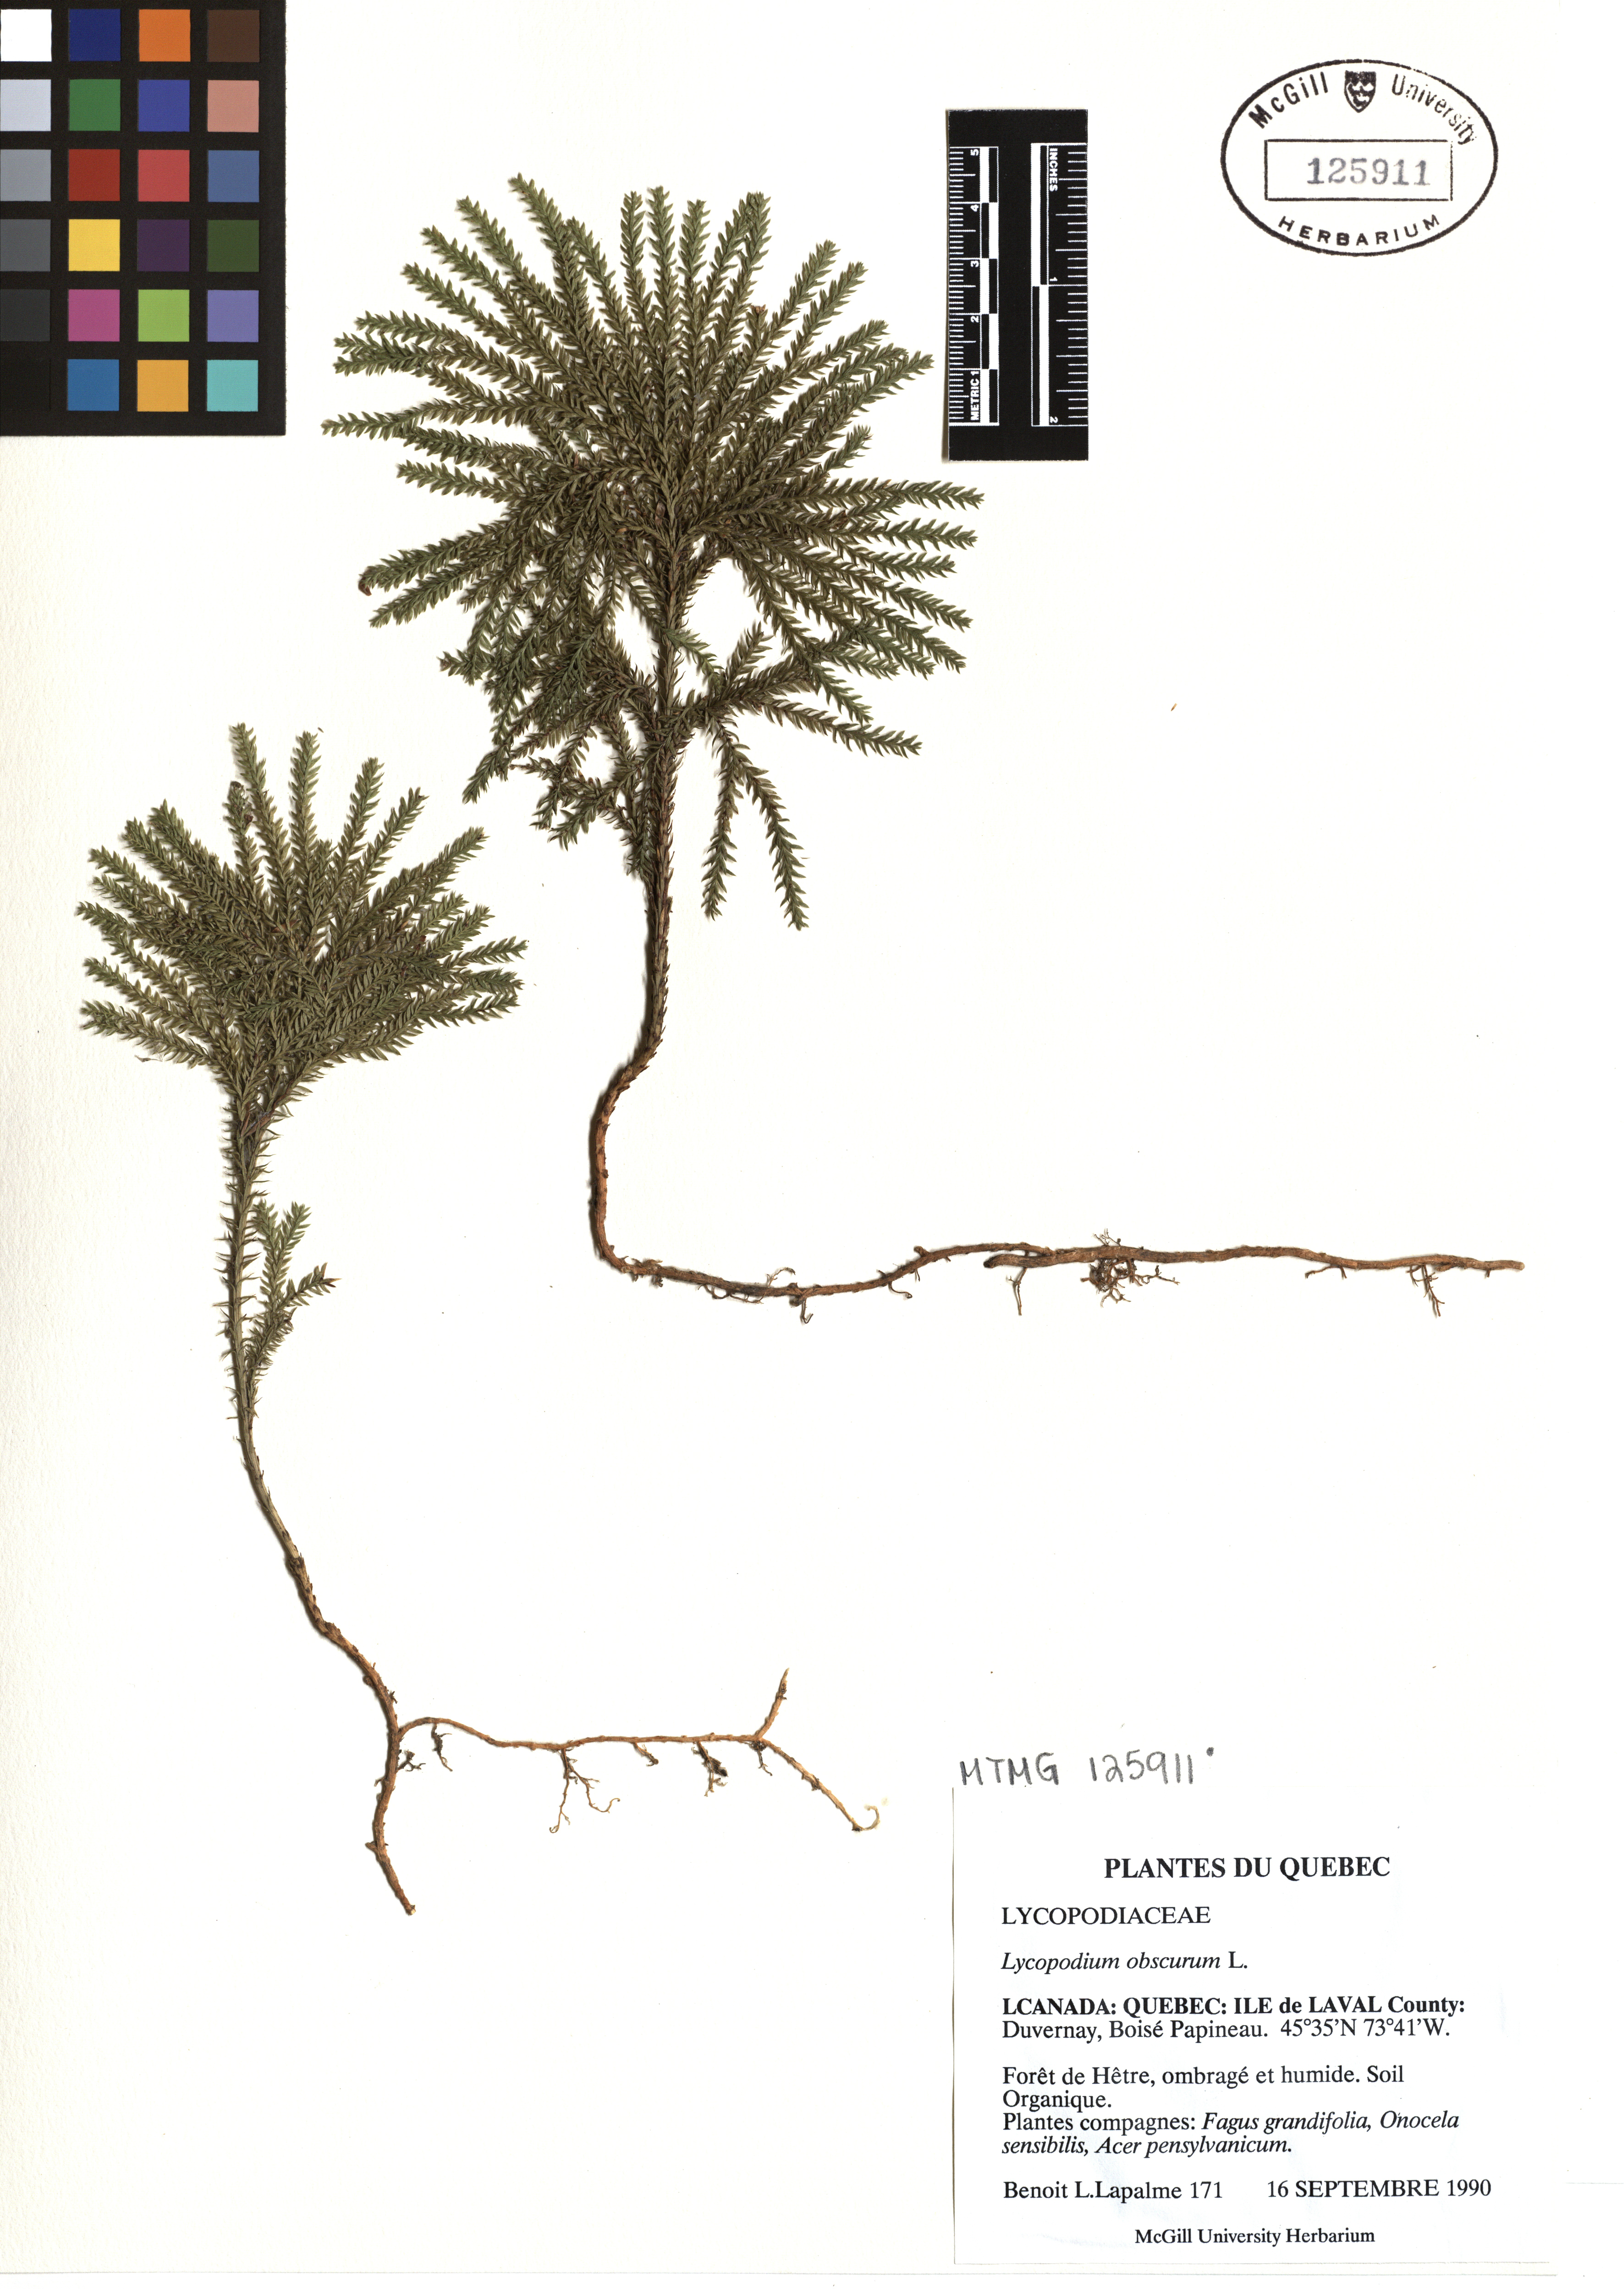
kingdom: Plantae
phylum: Tracheophyta
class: Lycopodiopsida
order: Lycopodiales
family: Lycopodiaceae
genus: Dendrolycopodium
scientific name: Dendrolycopodium obscurum
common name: Common ground-pine
